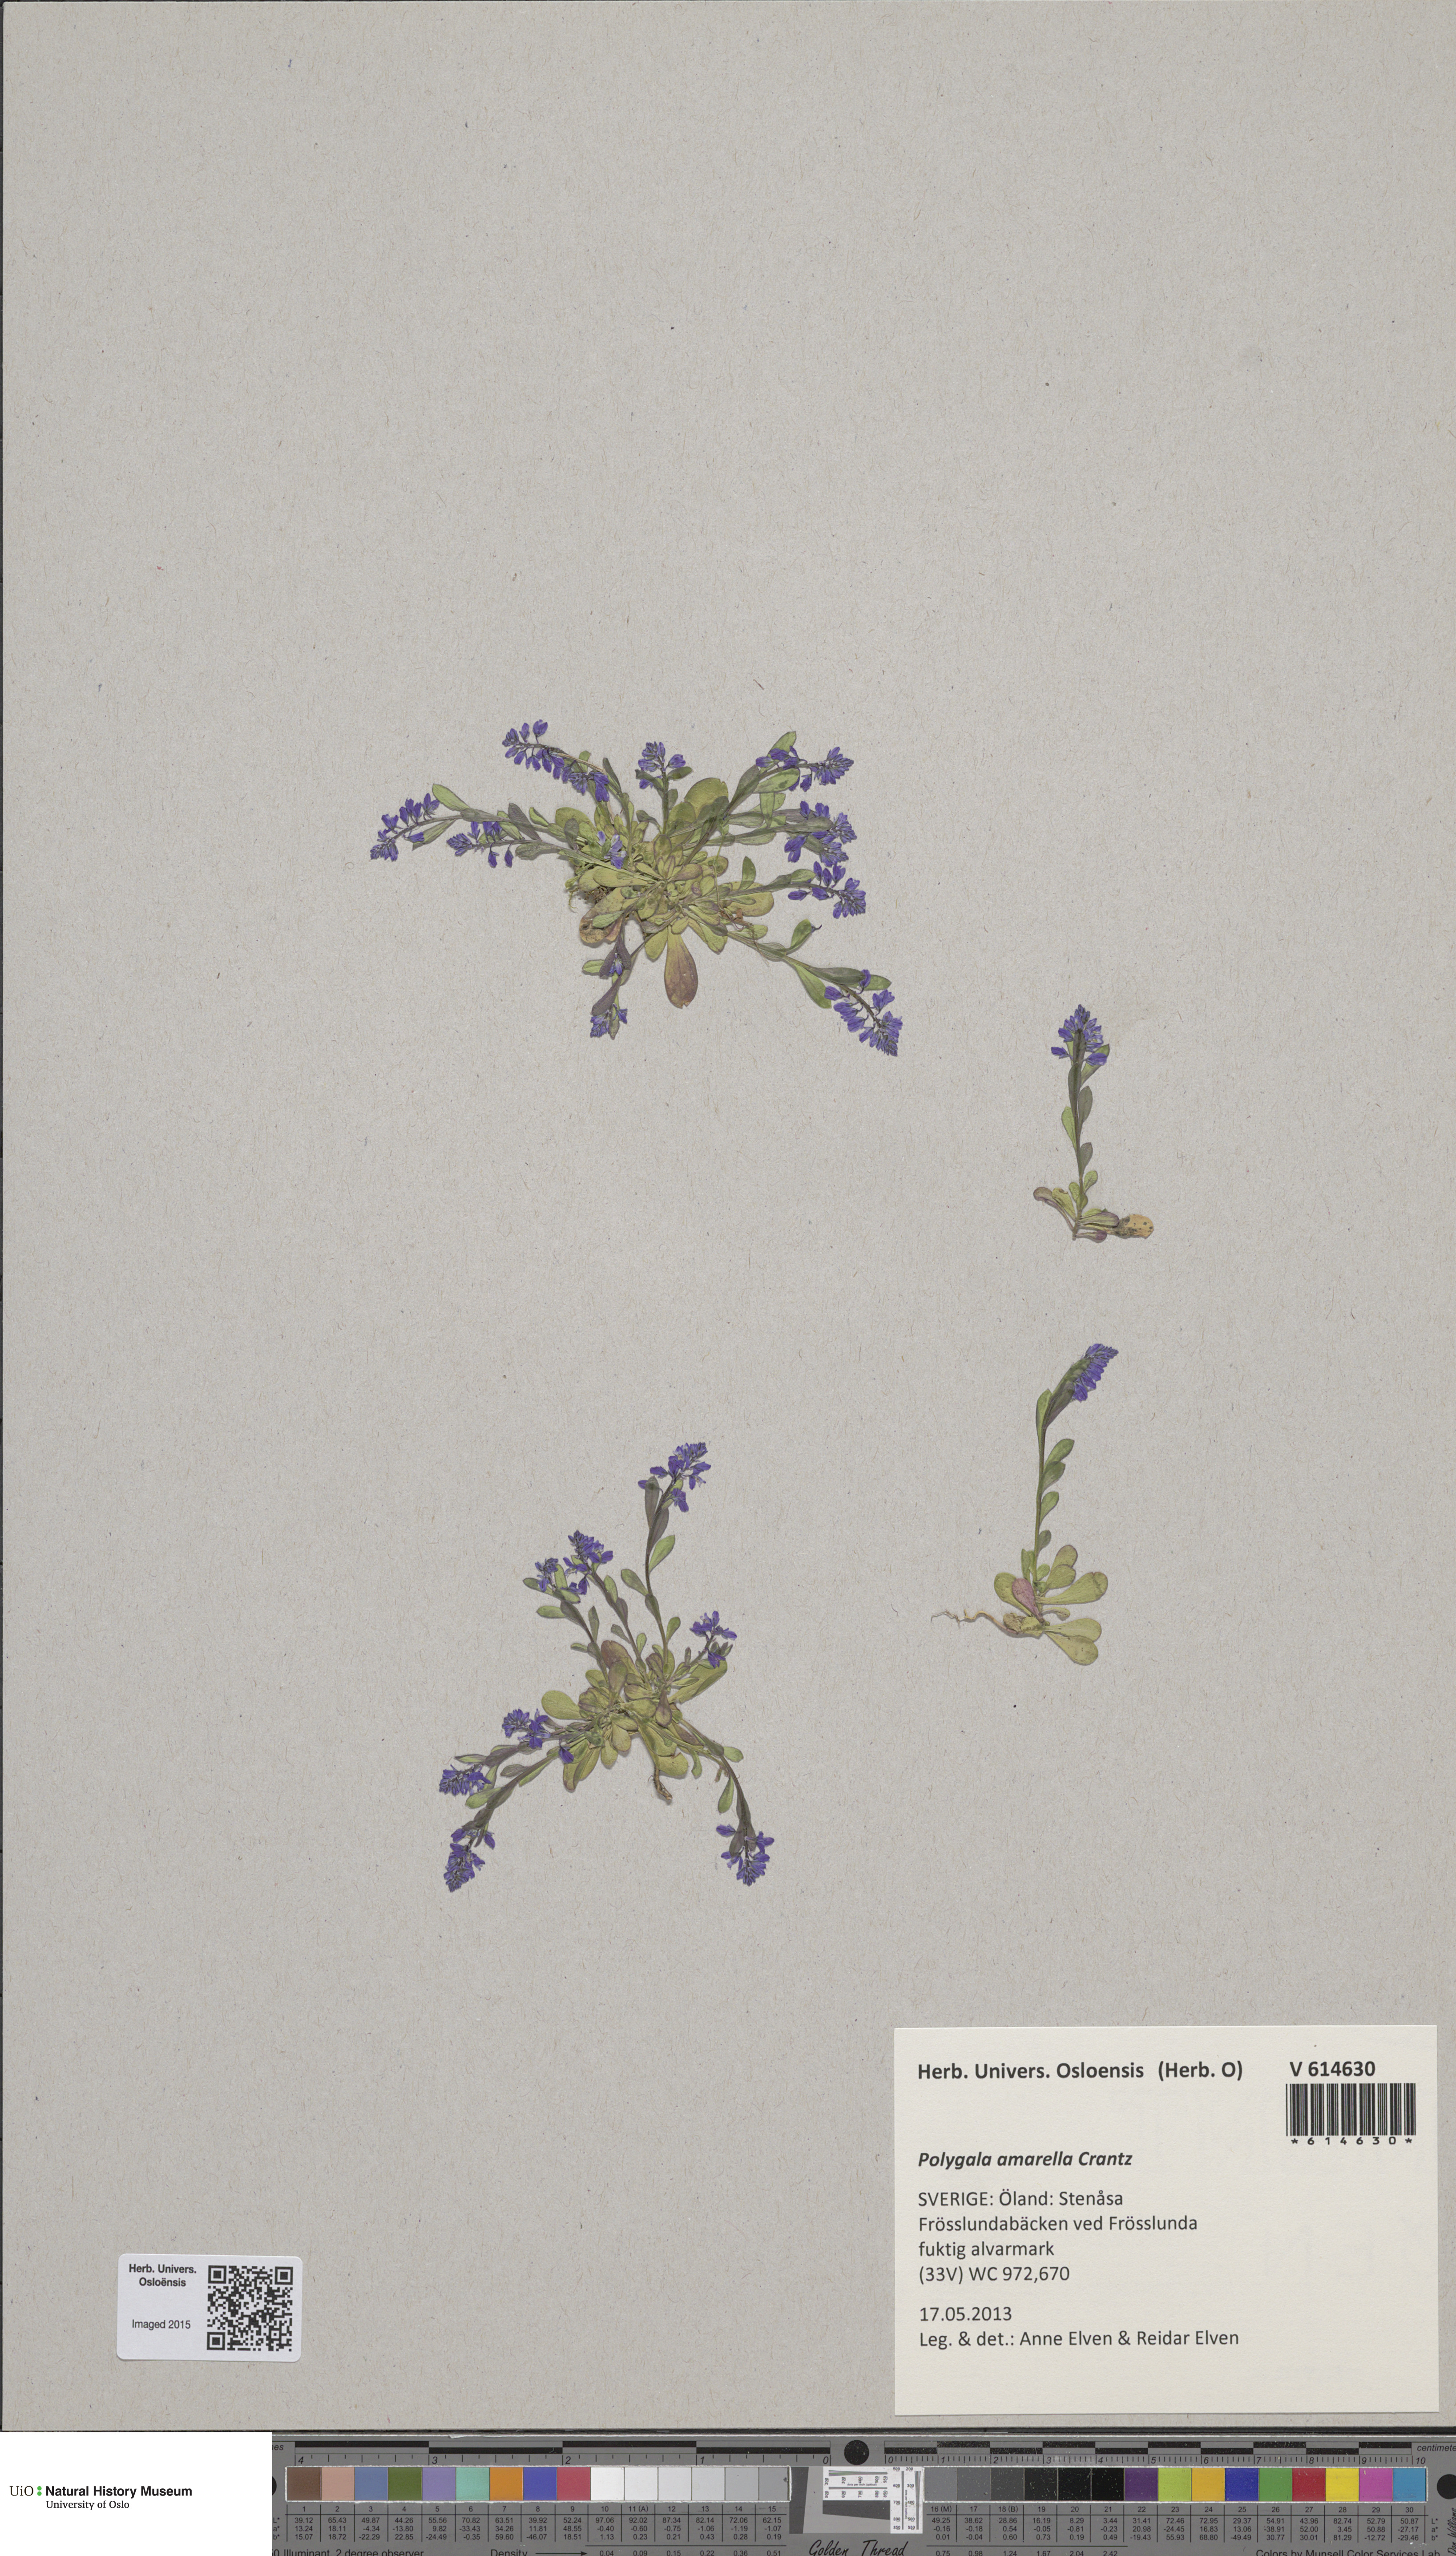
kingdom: Plantae
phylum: Tracheophyta
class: Magnoliopsida
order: Fabales
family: Polygalaceae
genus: Polygala
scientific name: Polygala amarella
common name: Dwarf milkwort
